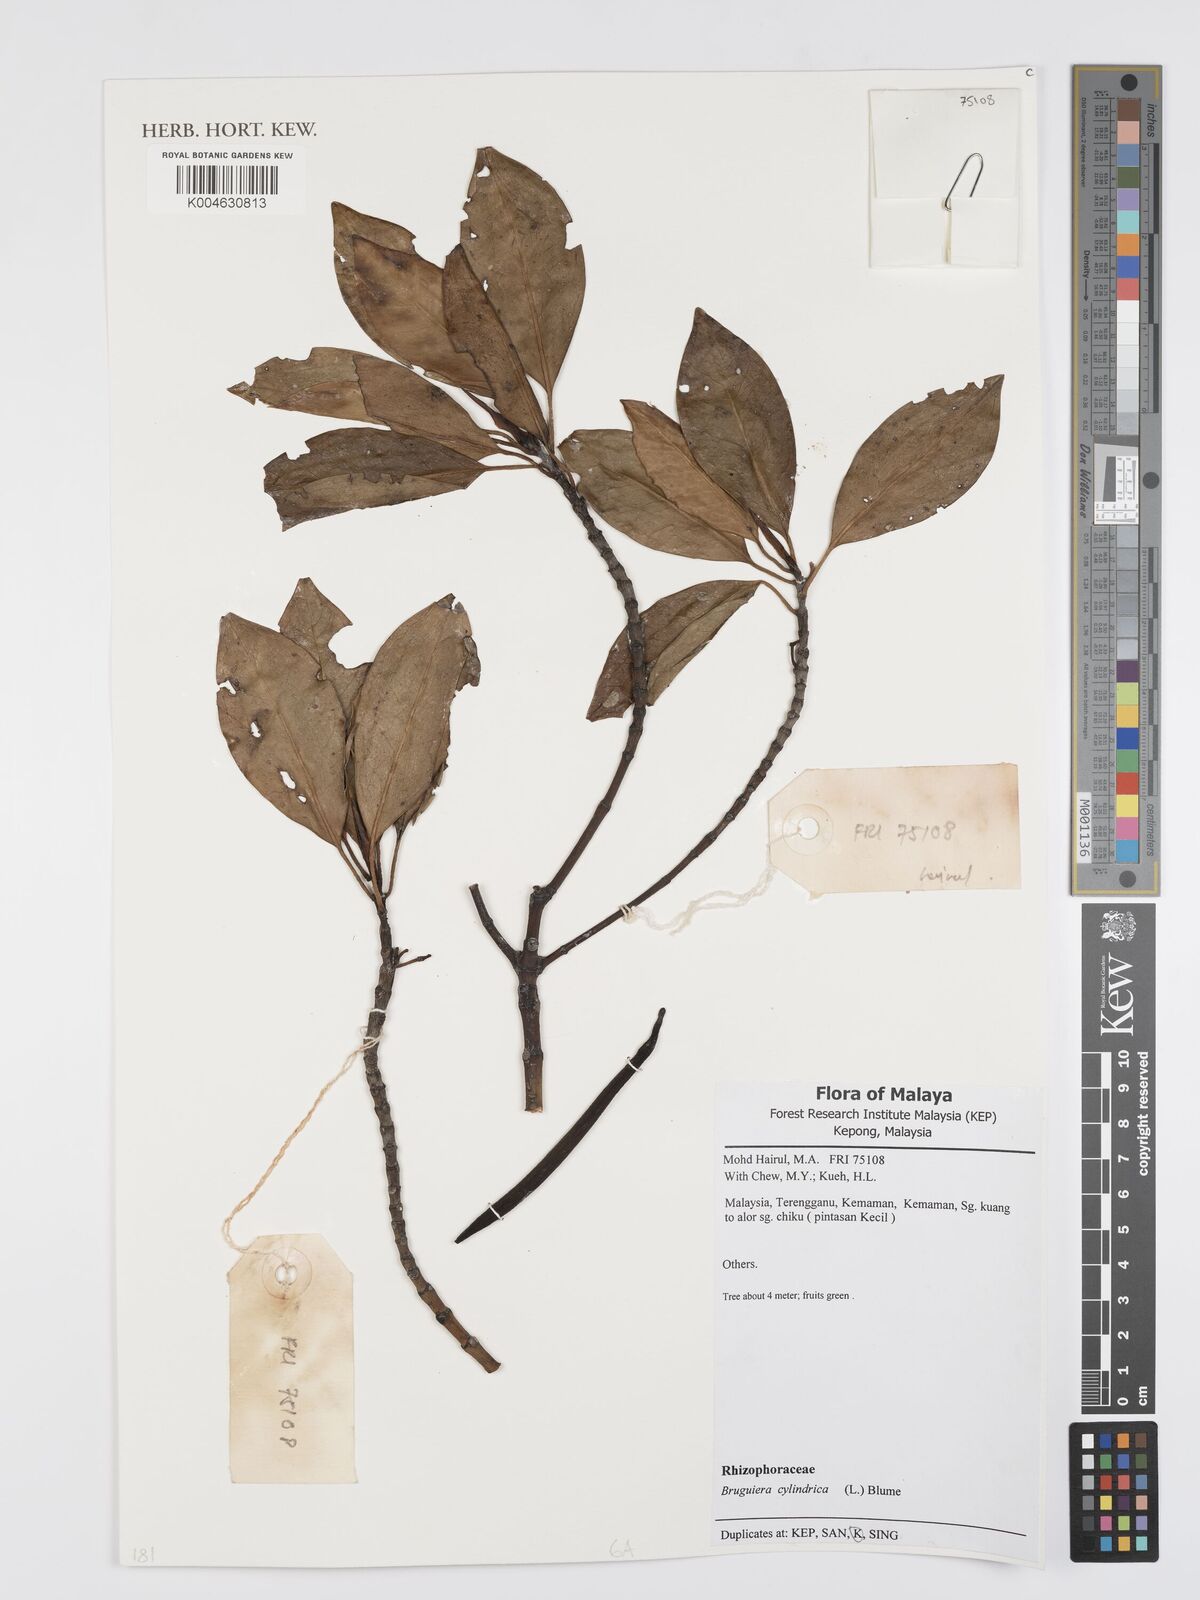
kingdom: Plantae
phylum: Tracheophyta
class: Magnoliopsida
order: Malpighiales
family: Rhizophoraceae
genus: Bruguiera
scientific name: Bruguiera cylindrica
